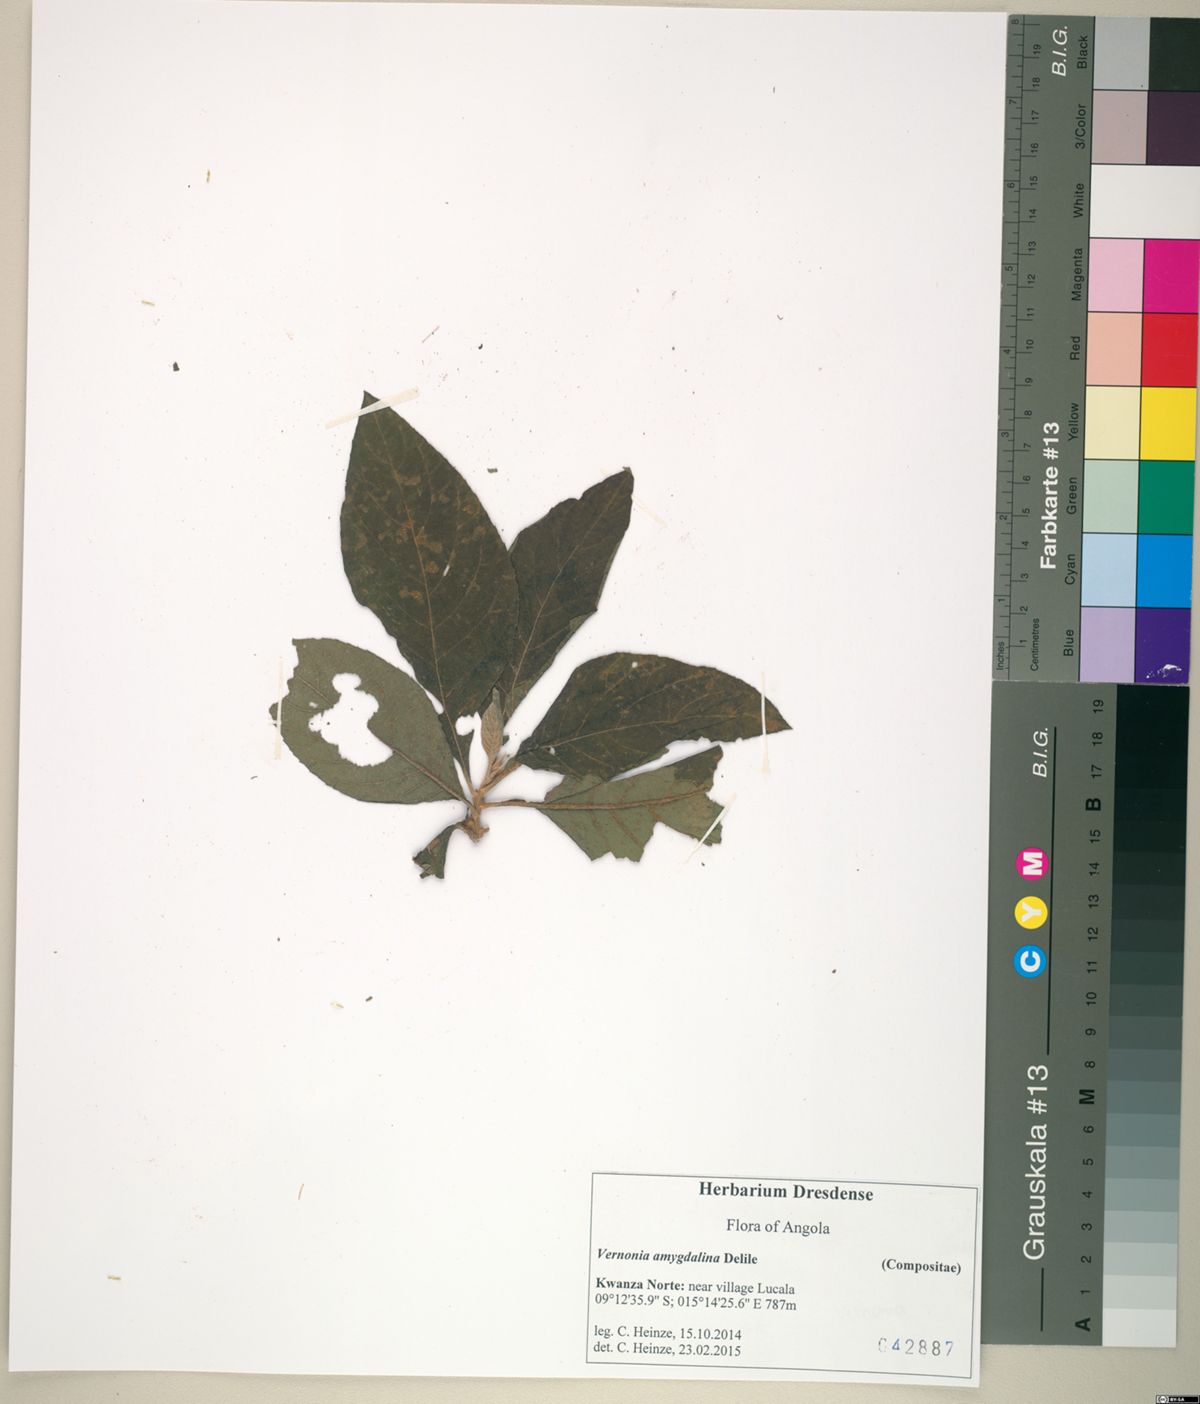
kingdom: Plantae
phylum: Tracheophyta
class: Magnoliopsida
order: Asterales
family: Asteraceae
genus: Gymnanthemum
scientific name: Gymnanthemum amygdalinum
